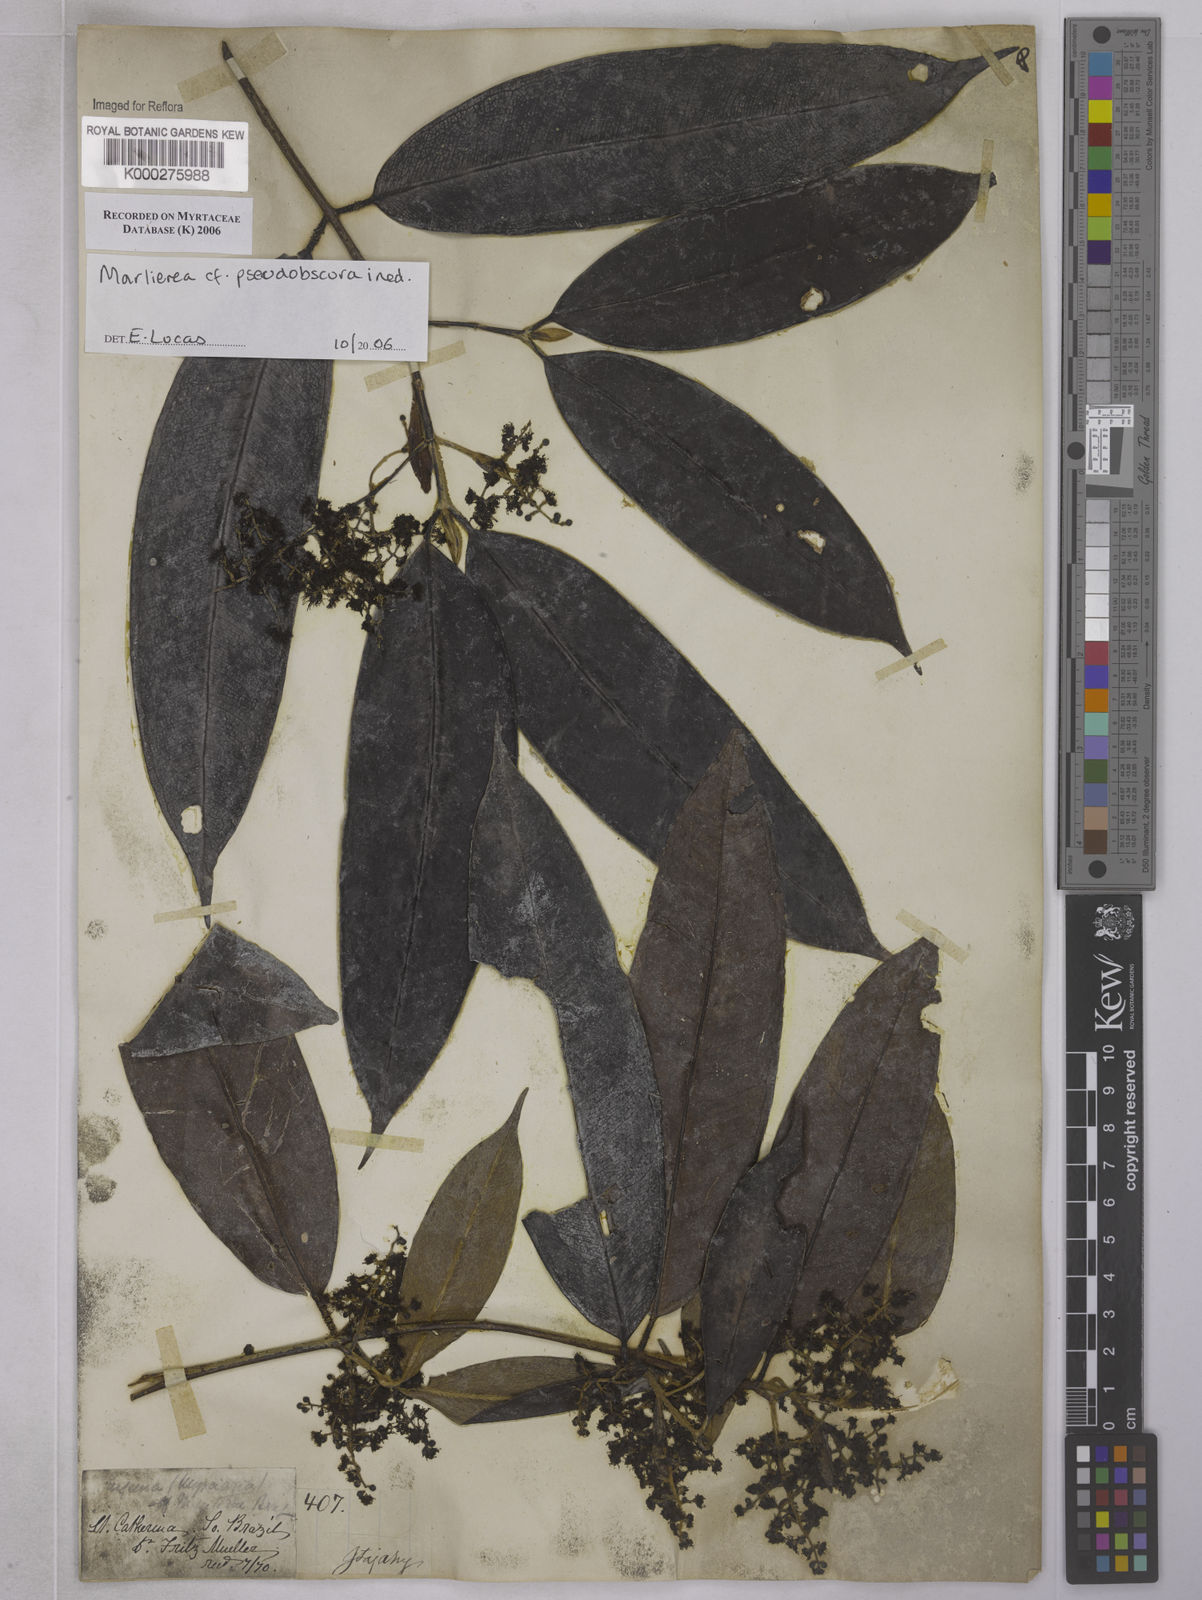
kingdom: Plantae
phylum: Tracheophyta
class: Magnoliopsida
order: Myrtales
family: Myrtaceae
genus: Marlierea
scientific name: Marlierea
